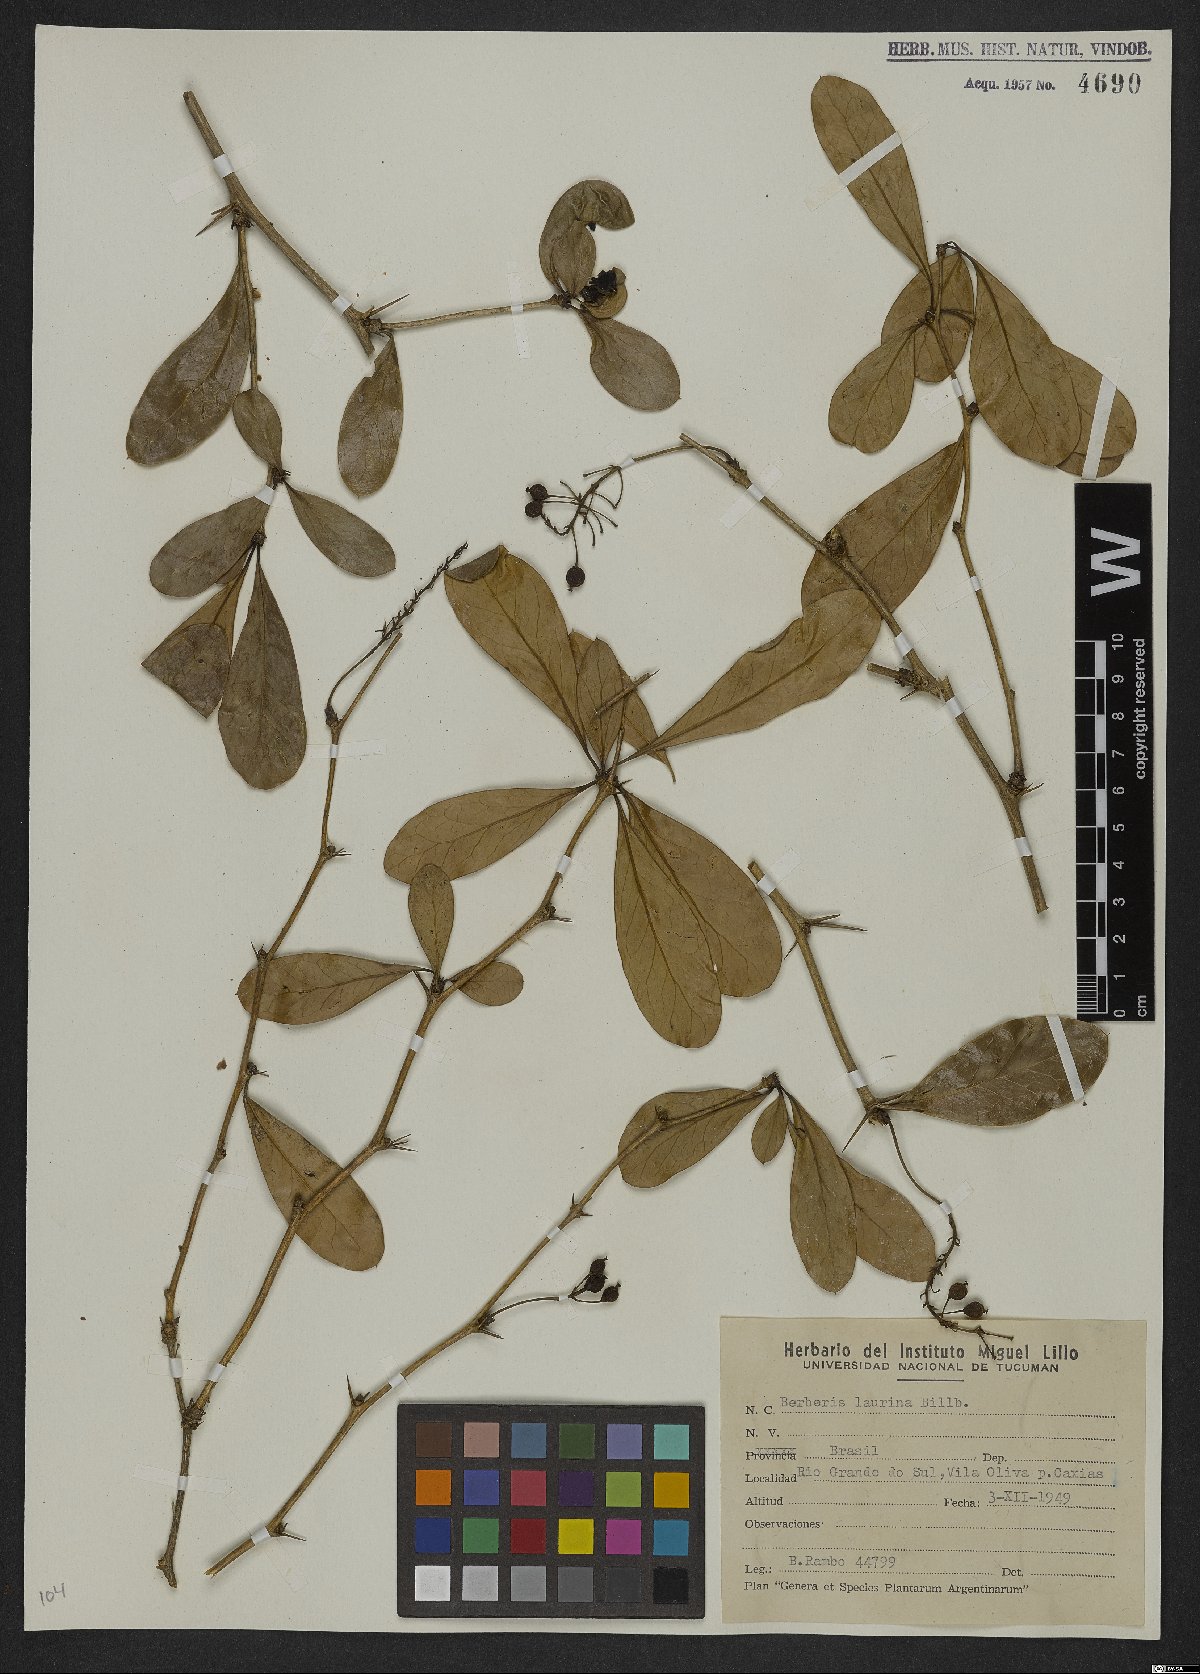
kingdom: Plantae
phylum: Tracheophyta
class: Magnoliopsida
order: Ranunculales
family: Berberidaceae
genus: Berberis
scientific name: Berberis laurina
